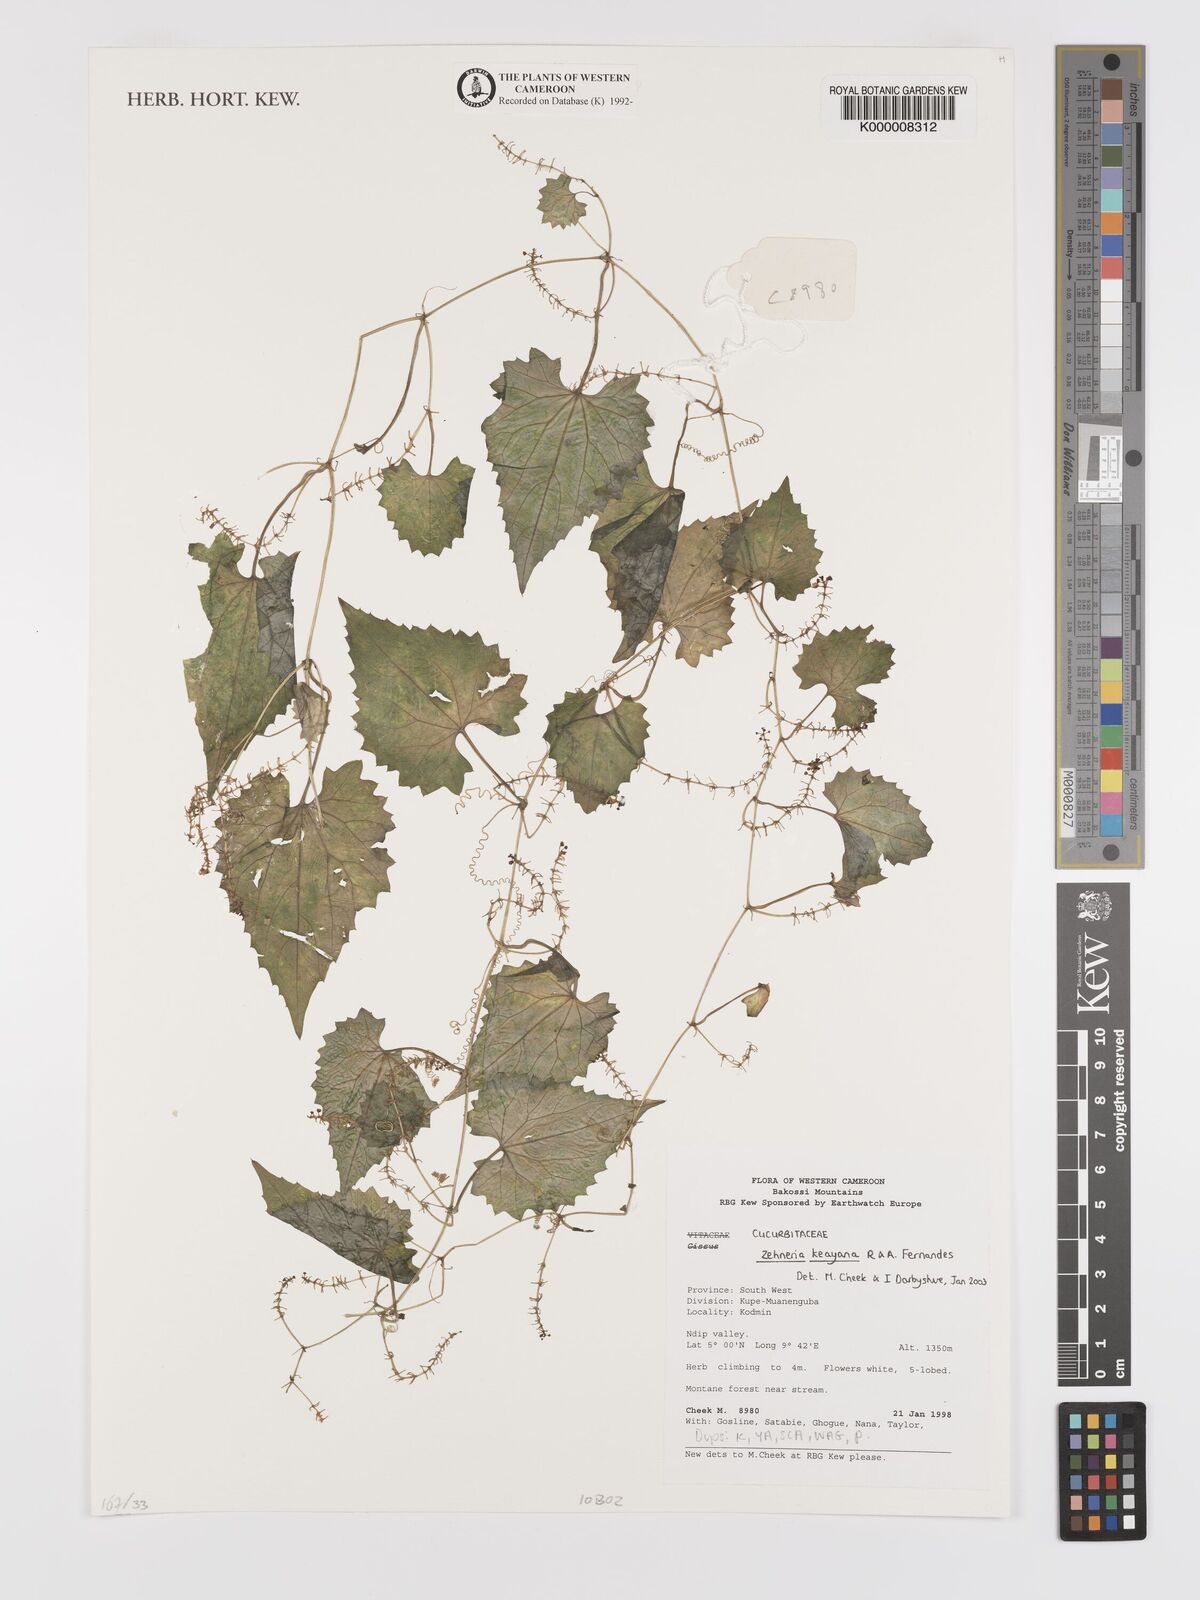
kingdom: Plantae
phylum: Tracheophyta
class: Magnoliopsida
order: Cucurbitales
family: Cucurbitaceae
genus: Zehneria
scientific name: Zehneria keayana
